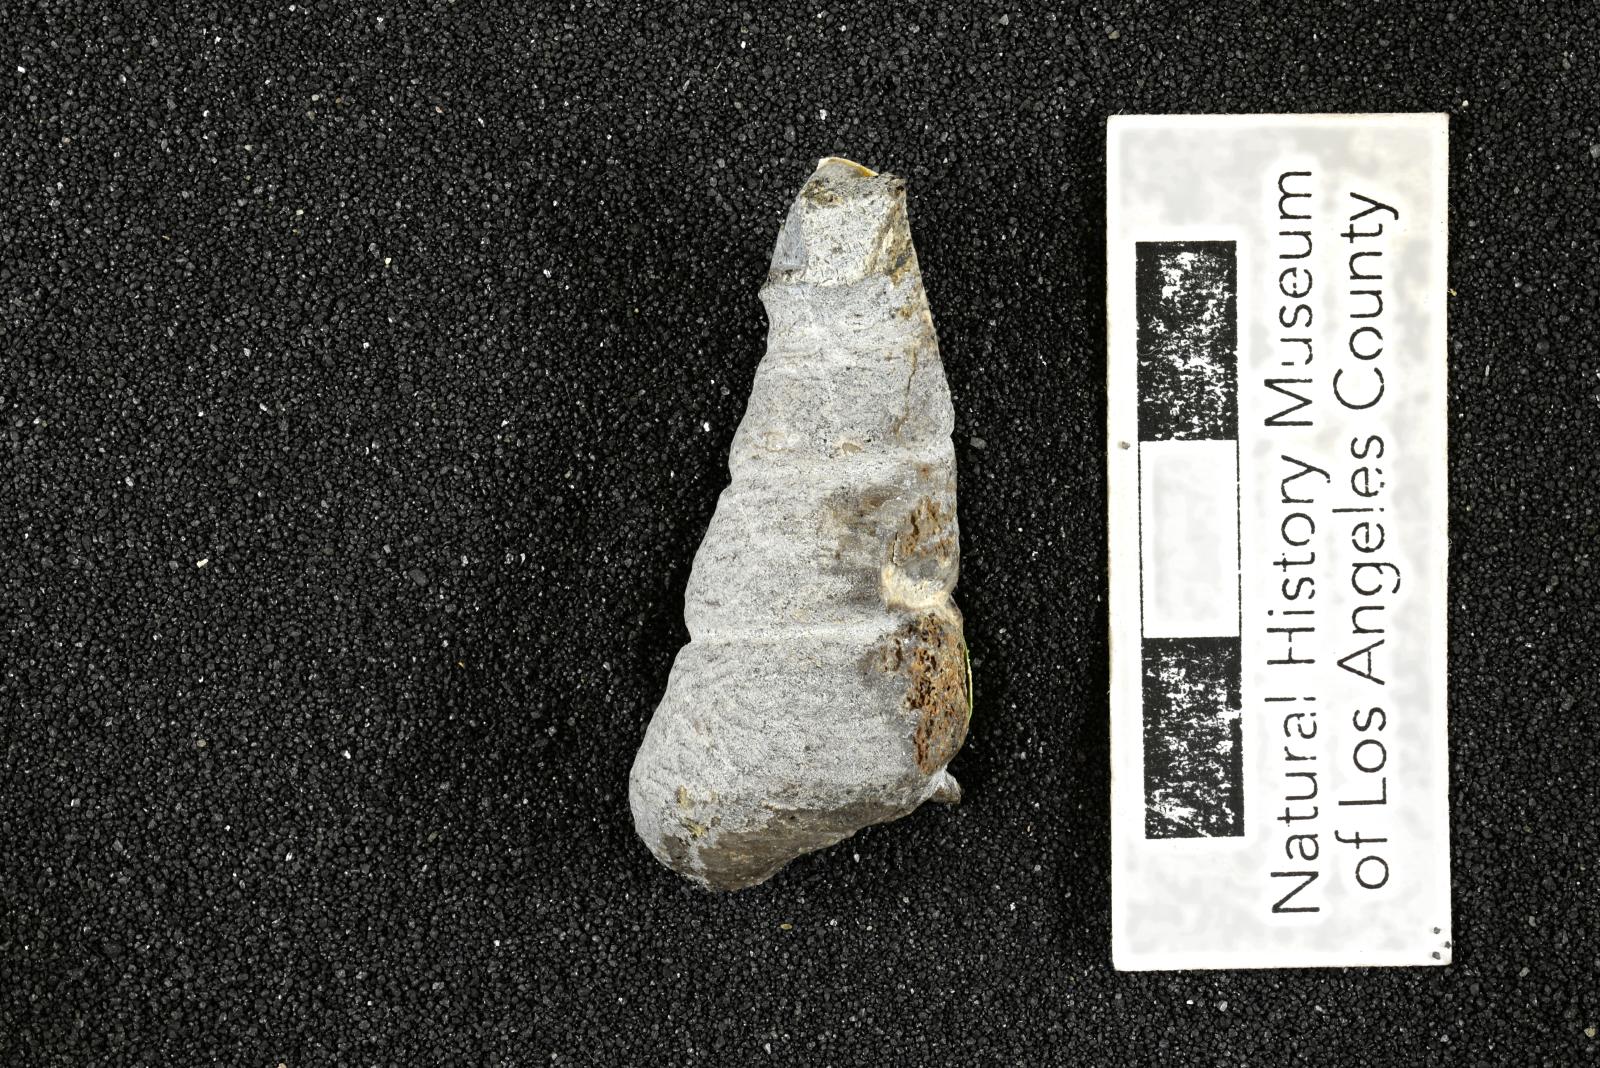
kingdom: Animalia
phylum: Mollusca
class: Gastropoda
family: Turritellidae
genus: Turritella
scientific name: Turritella peninsularis
